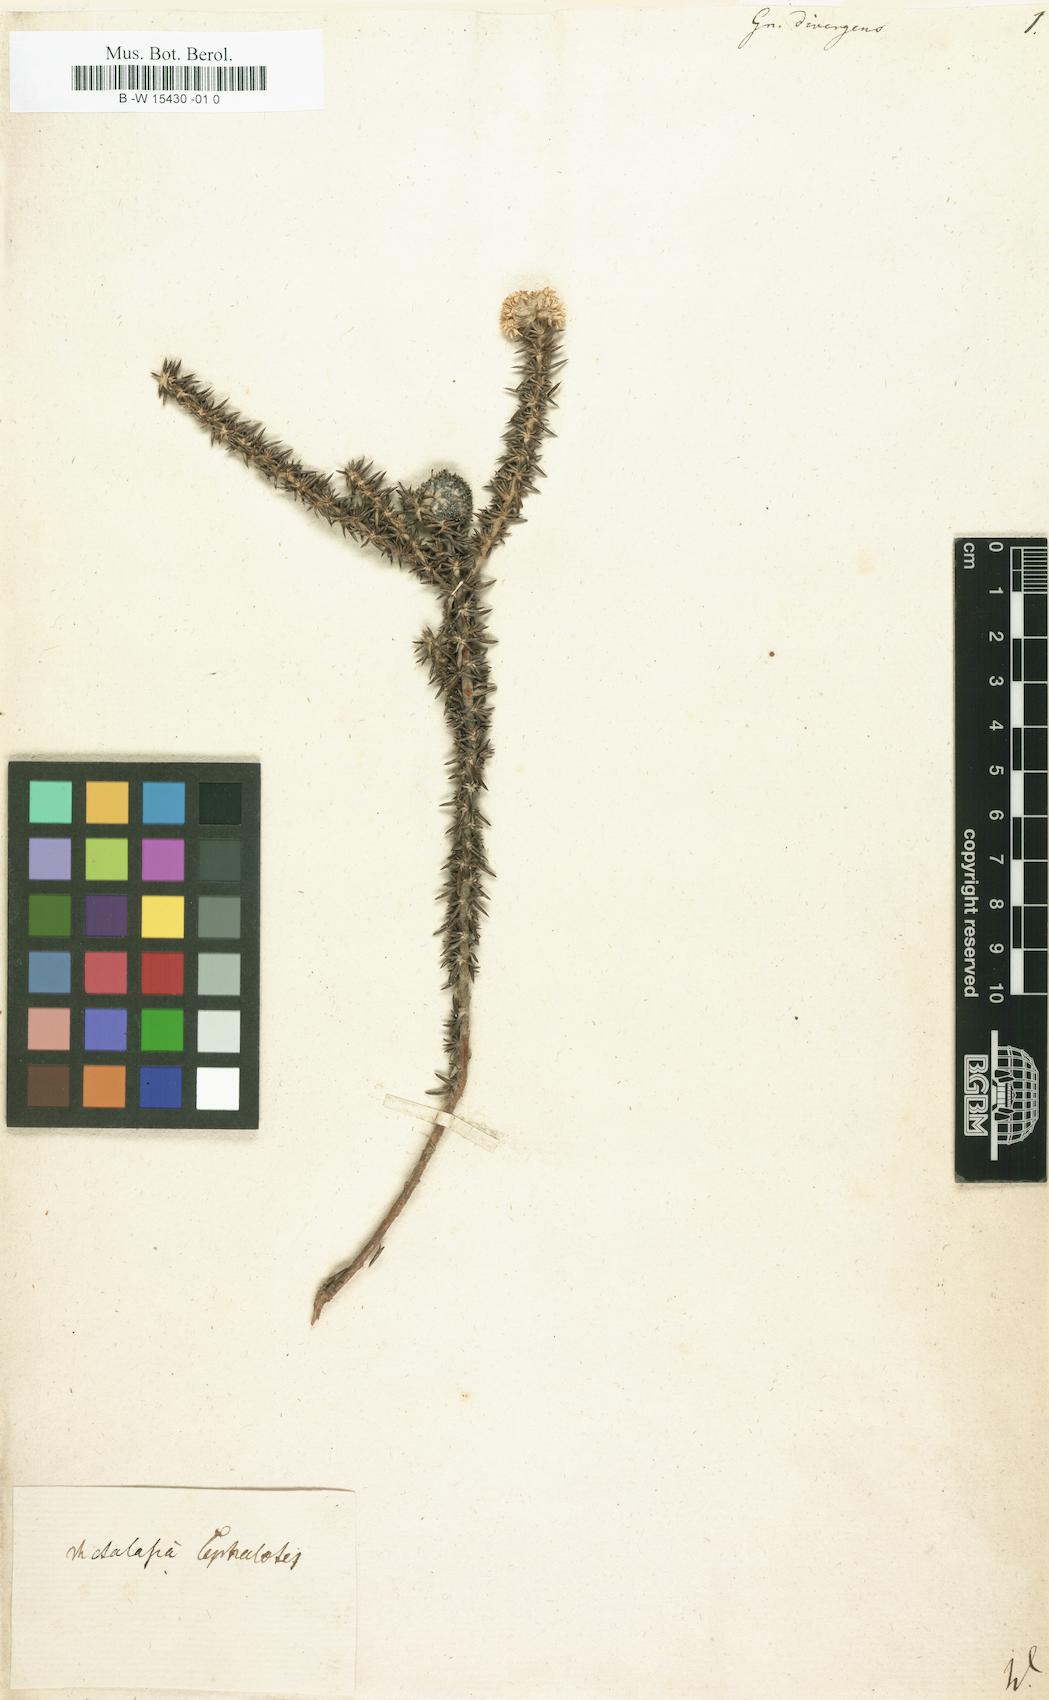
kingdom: Plantae
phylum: Tracheophyta
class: Magnoliopsida
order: Asterales
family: Asteraceae
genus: Metalasia
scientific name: Metalasia divergens
